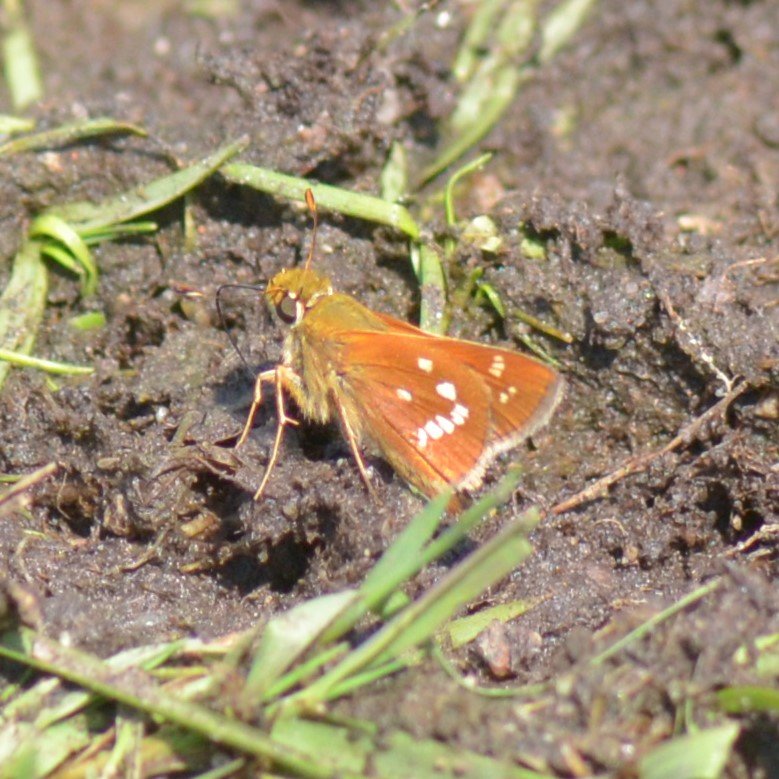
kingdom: Animalia
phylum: Arthropoda
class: Insecta
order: Lepidoptera
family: Hesperiidae
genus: Hesperia
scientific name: Hesperia leonardus
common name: Leonard's Skipper
